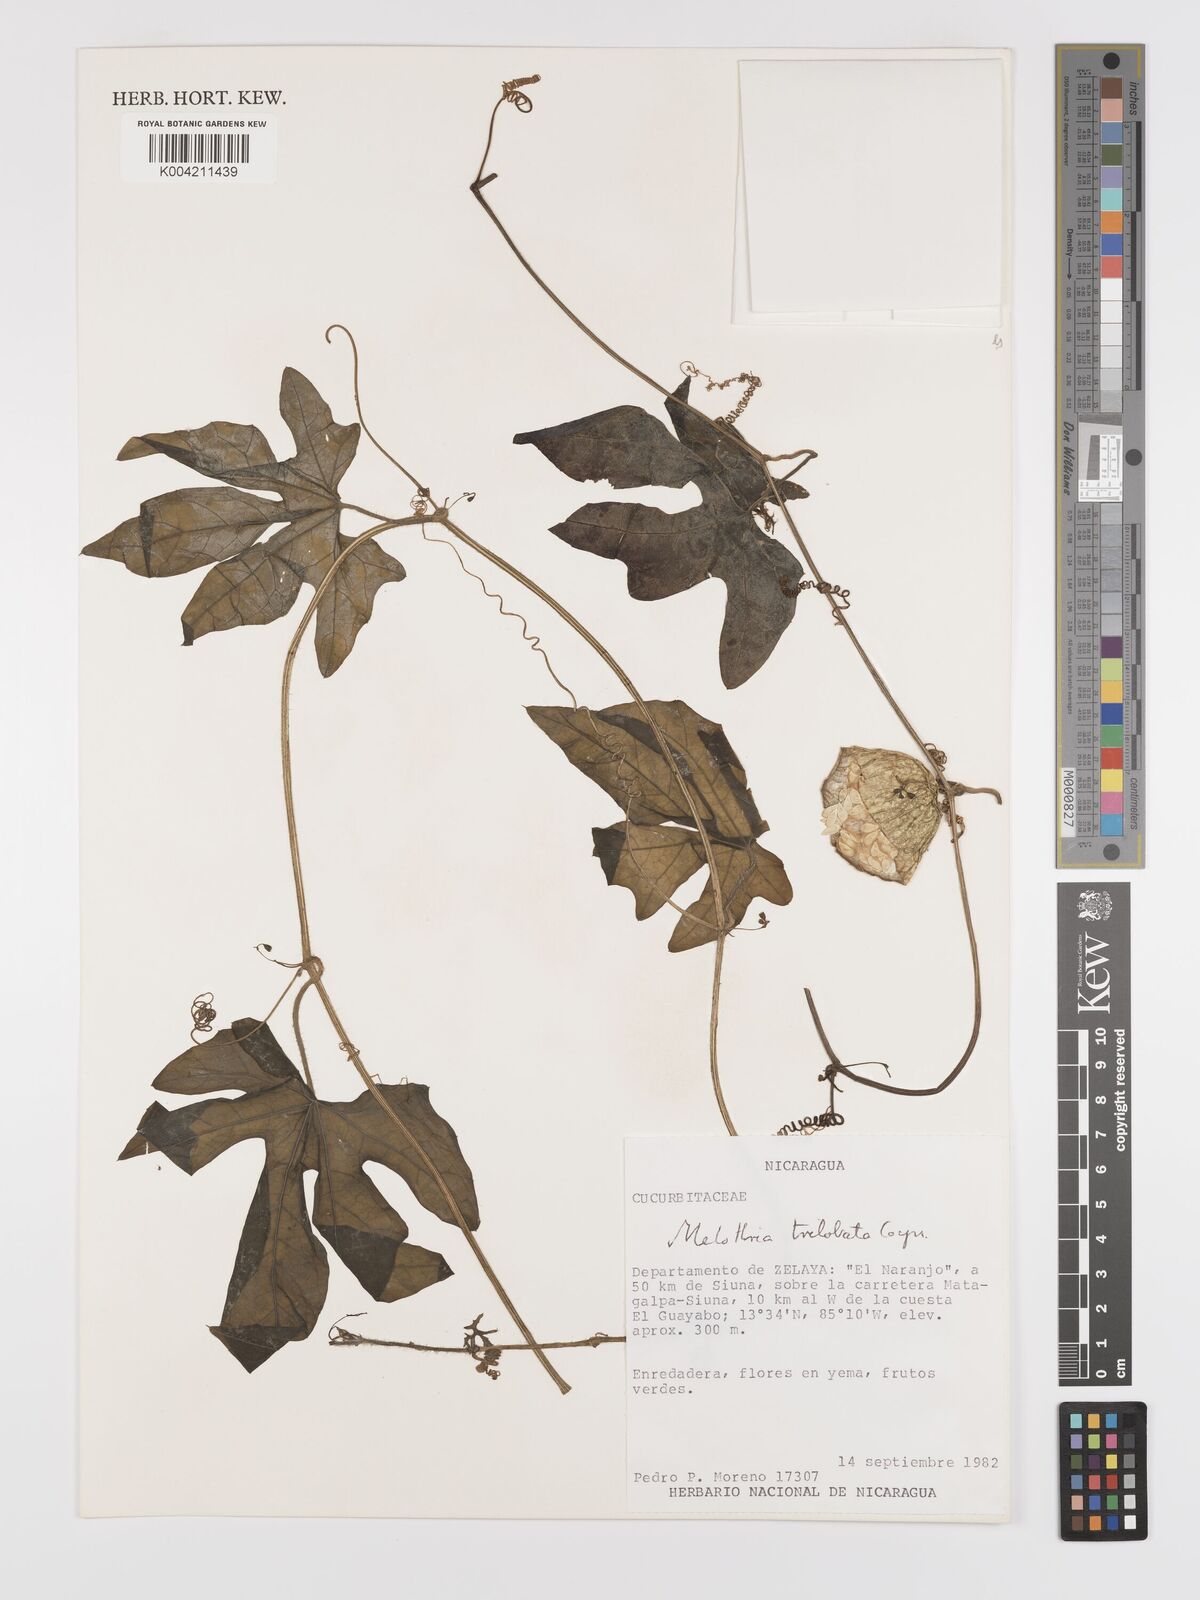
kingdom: Plantae
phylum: Tracheophyta
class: Magnoliopsida
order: Cucurbitales
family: Cucurbitaceae
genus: Melothria
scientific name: Melothria trilobata
